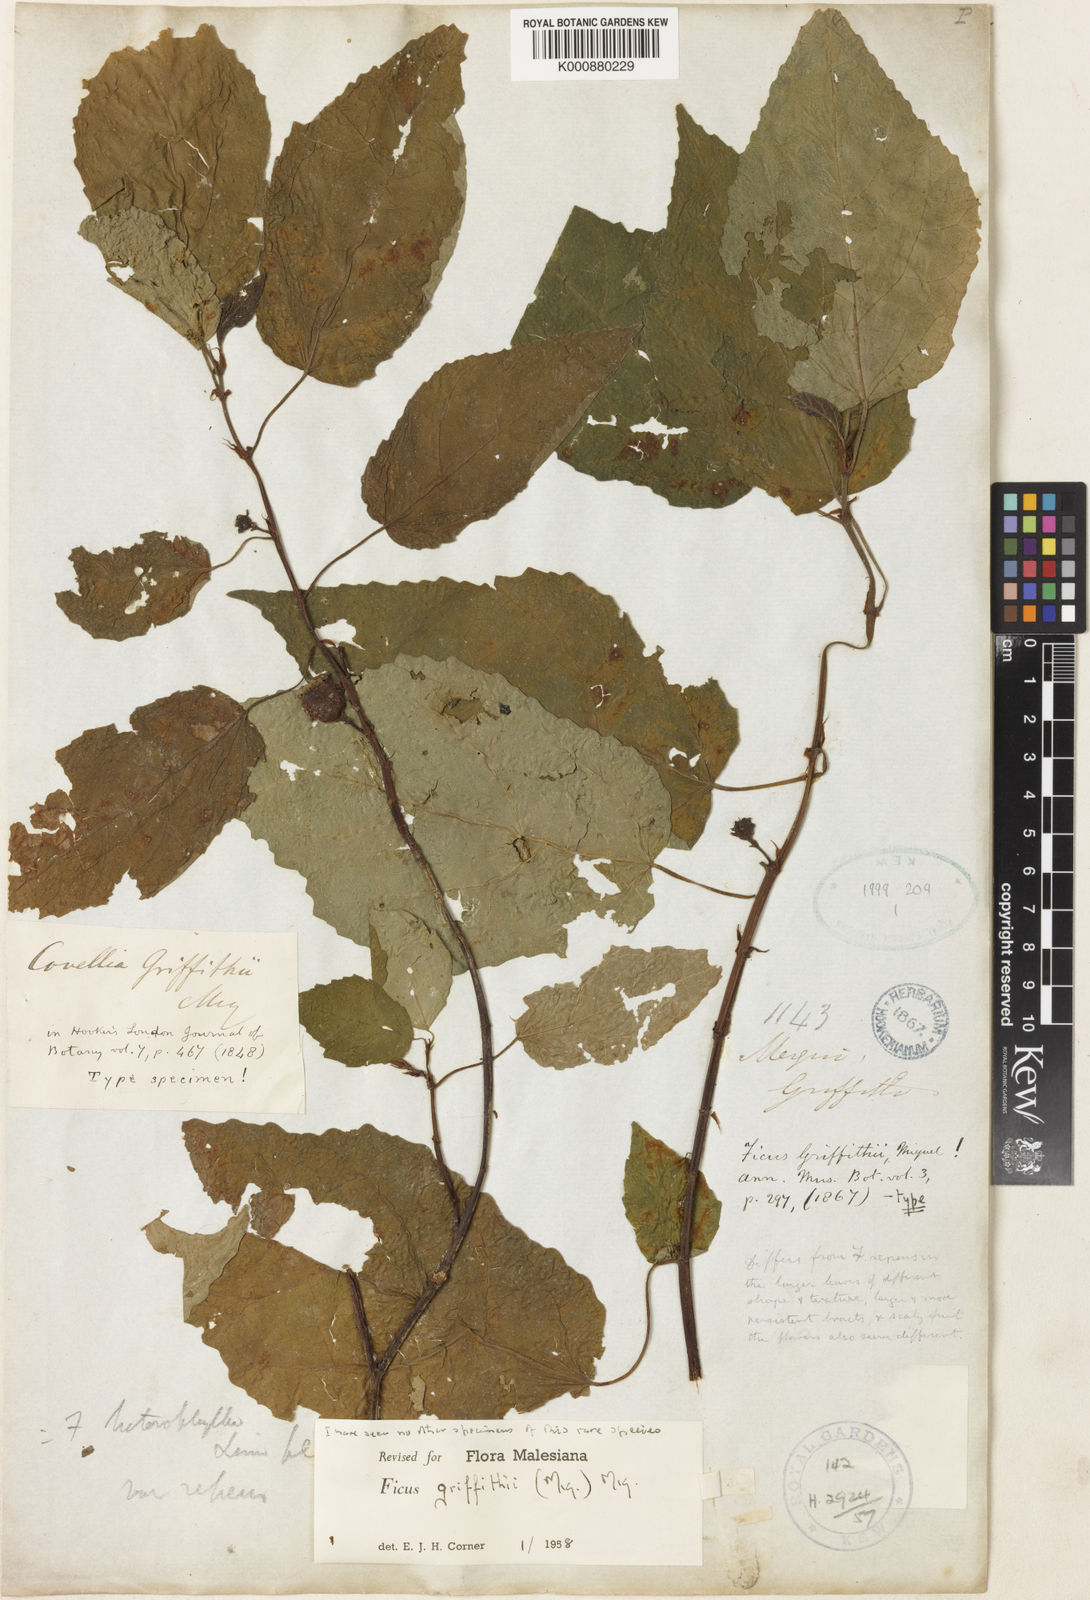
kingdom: Plantae
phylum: Tracheophyta
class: Magnoliopsida
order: Rosales
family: Moraceae
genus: Ficus
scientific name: Ficus griffithii
